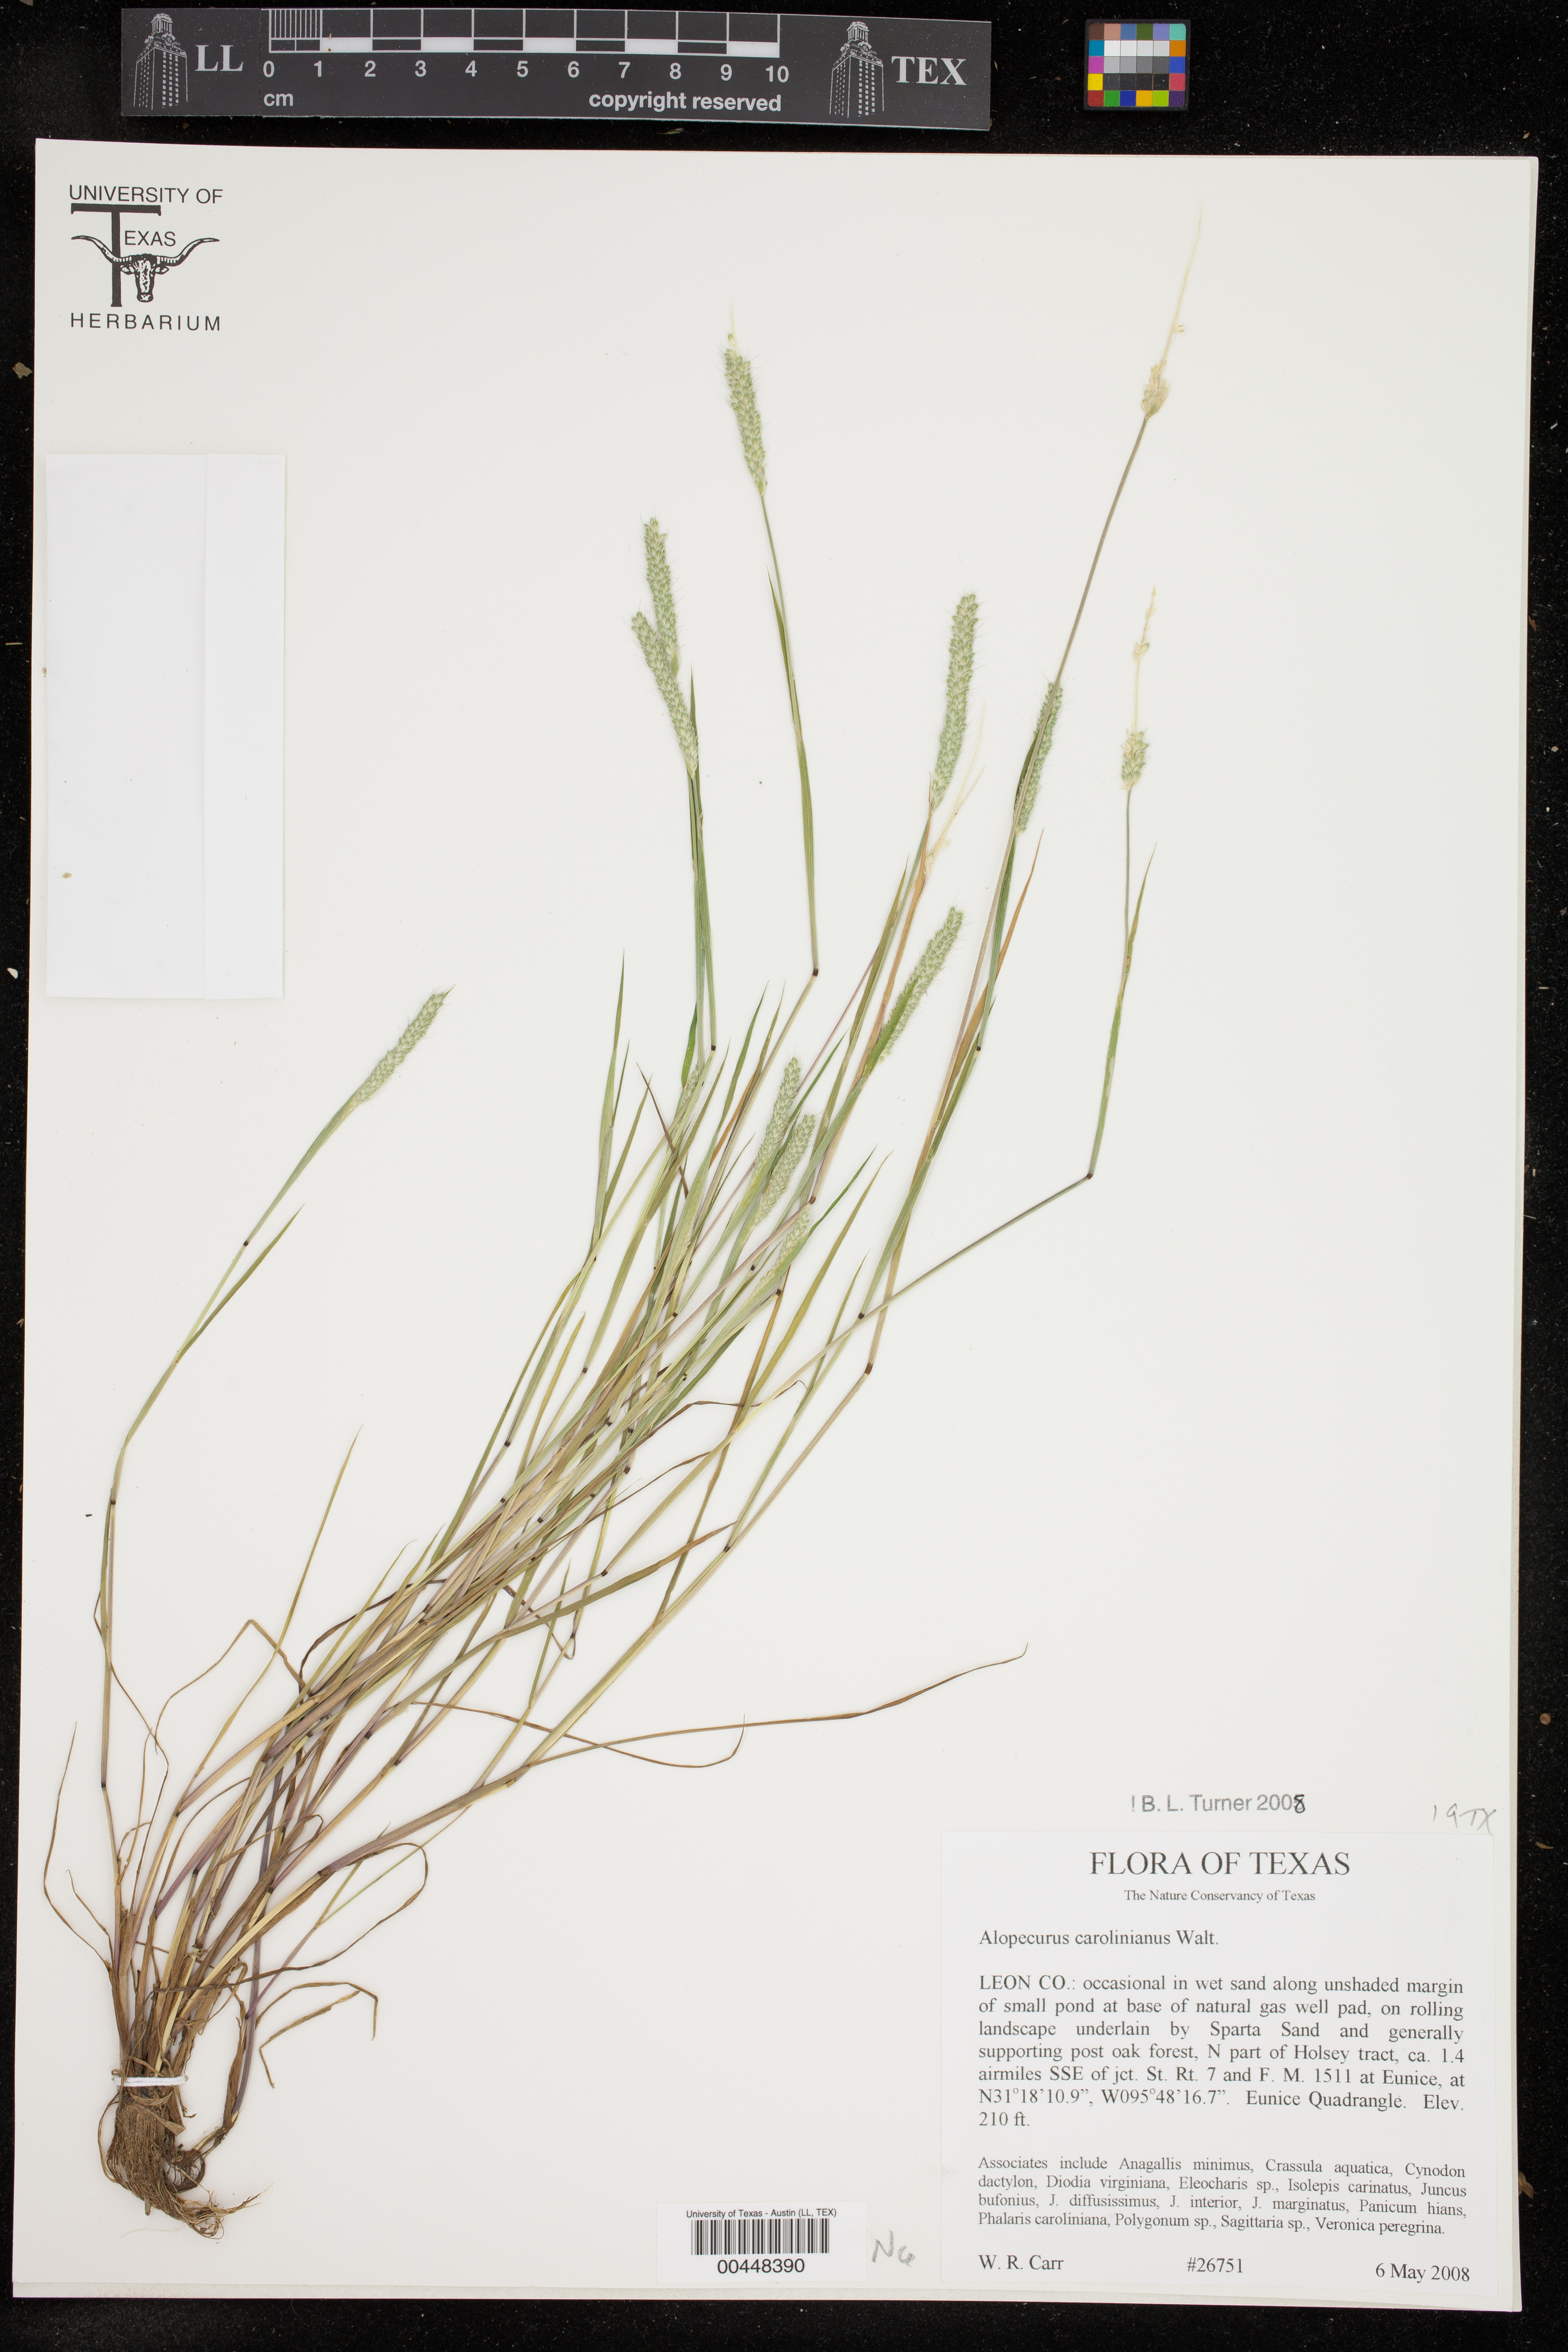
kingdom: Plantae
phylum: Tracheophyta
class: Liliopsida
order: Poales
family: Poaceae
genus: Alopecurus
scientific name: Alopecurus carolinianus
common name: Tufted foxtail
